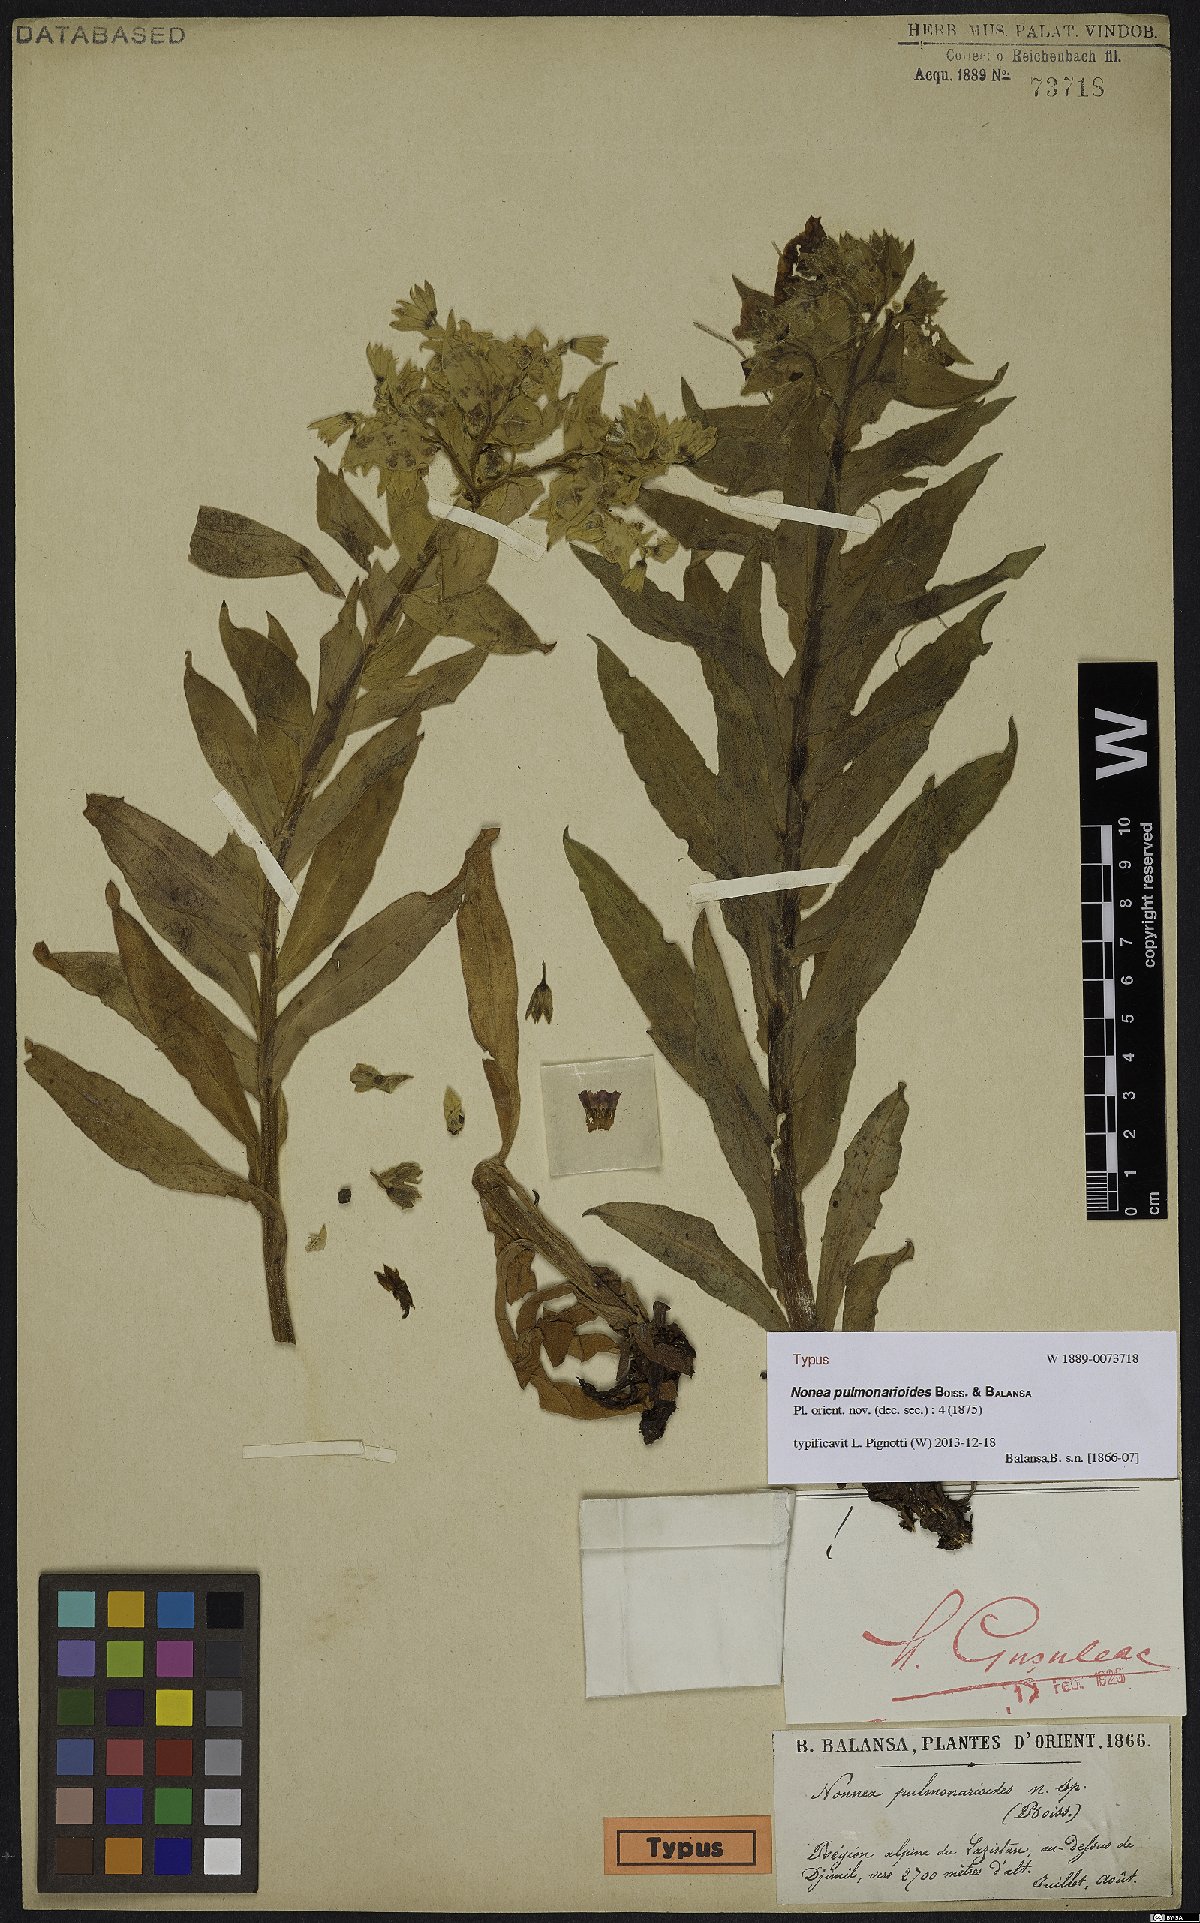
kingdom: Plantae
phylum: Tracheophyta
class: Magnoliopsida
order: Boraginales
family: Boraginaceae
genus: Nonea
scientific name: Nonea pulmonarioides
